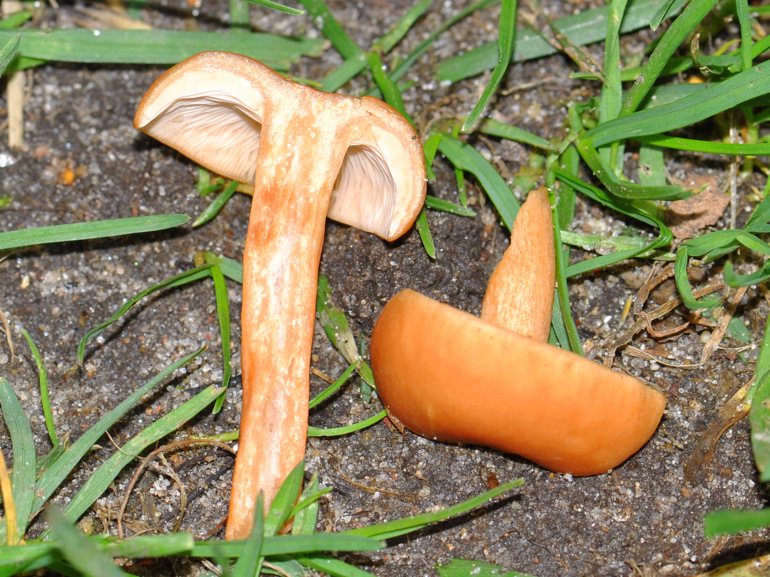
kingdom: Fungi
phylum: Basidiomycota
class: Agaricomycetes
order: Russulales
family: Russulaceae
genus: Lactarius
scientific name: Lactarius tabidus
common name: rynket mælkehat
